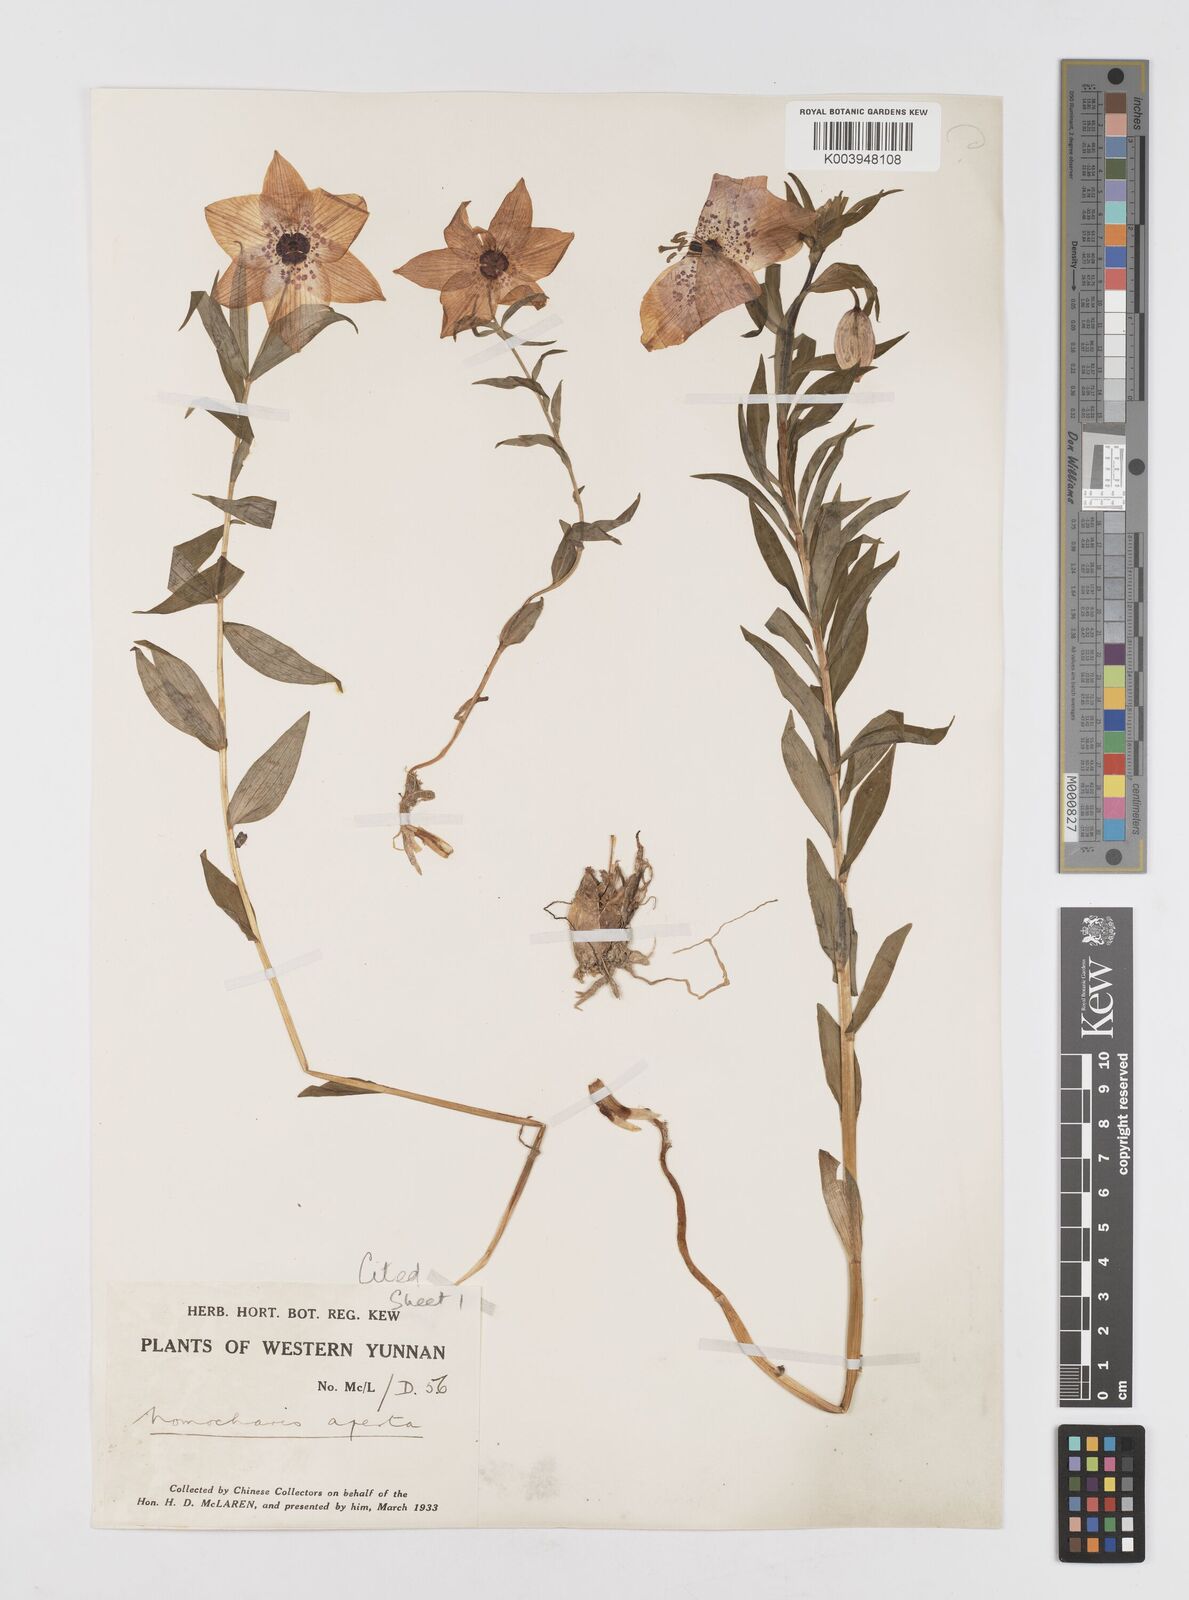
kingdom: Plantae
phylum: Tracheophyta
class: Liliopsida
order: Liliales
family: Liliaceae
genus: Lilium
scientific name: Lilium apertum
